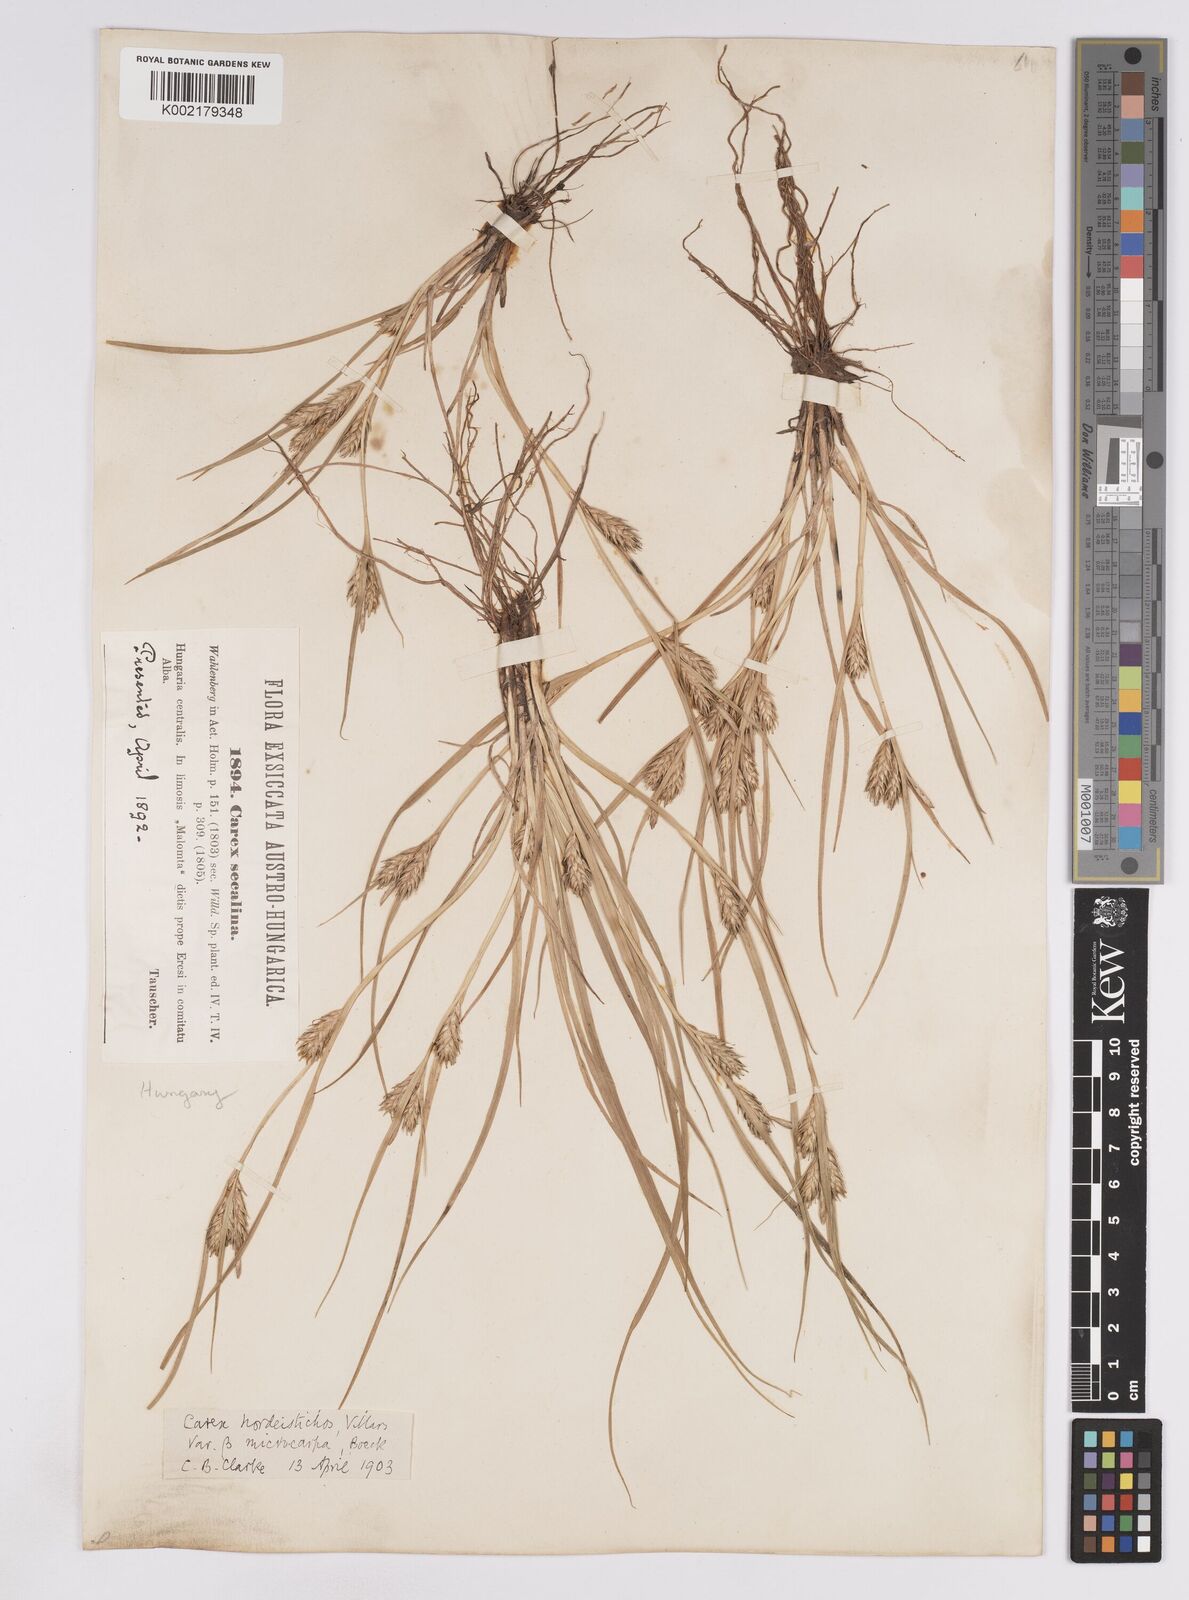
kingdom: Plantae
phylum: Tracheophyta
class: Liliopsida
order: Poales
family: Cyperaceae
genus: Carex
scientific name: Carex hordeistichos
